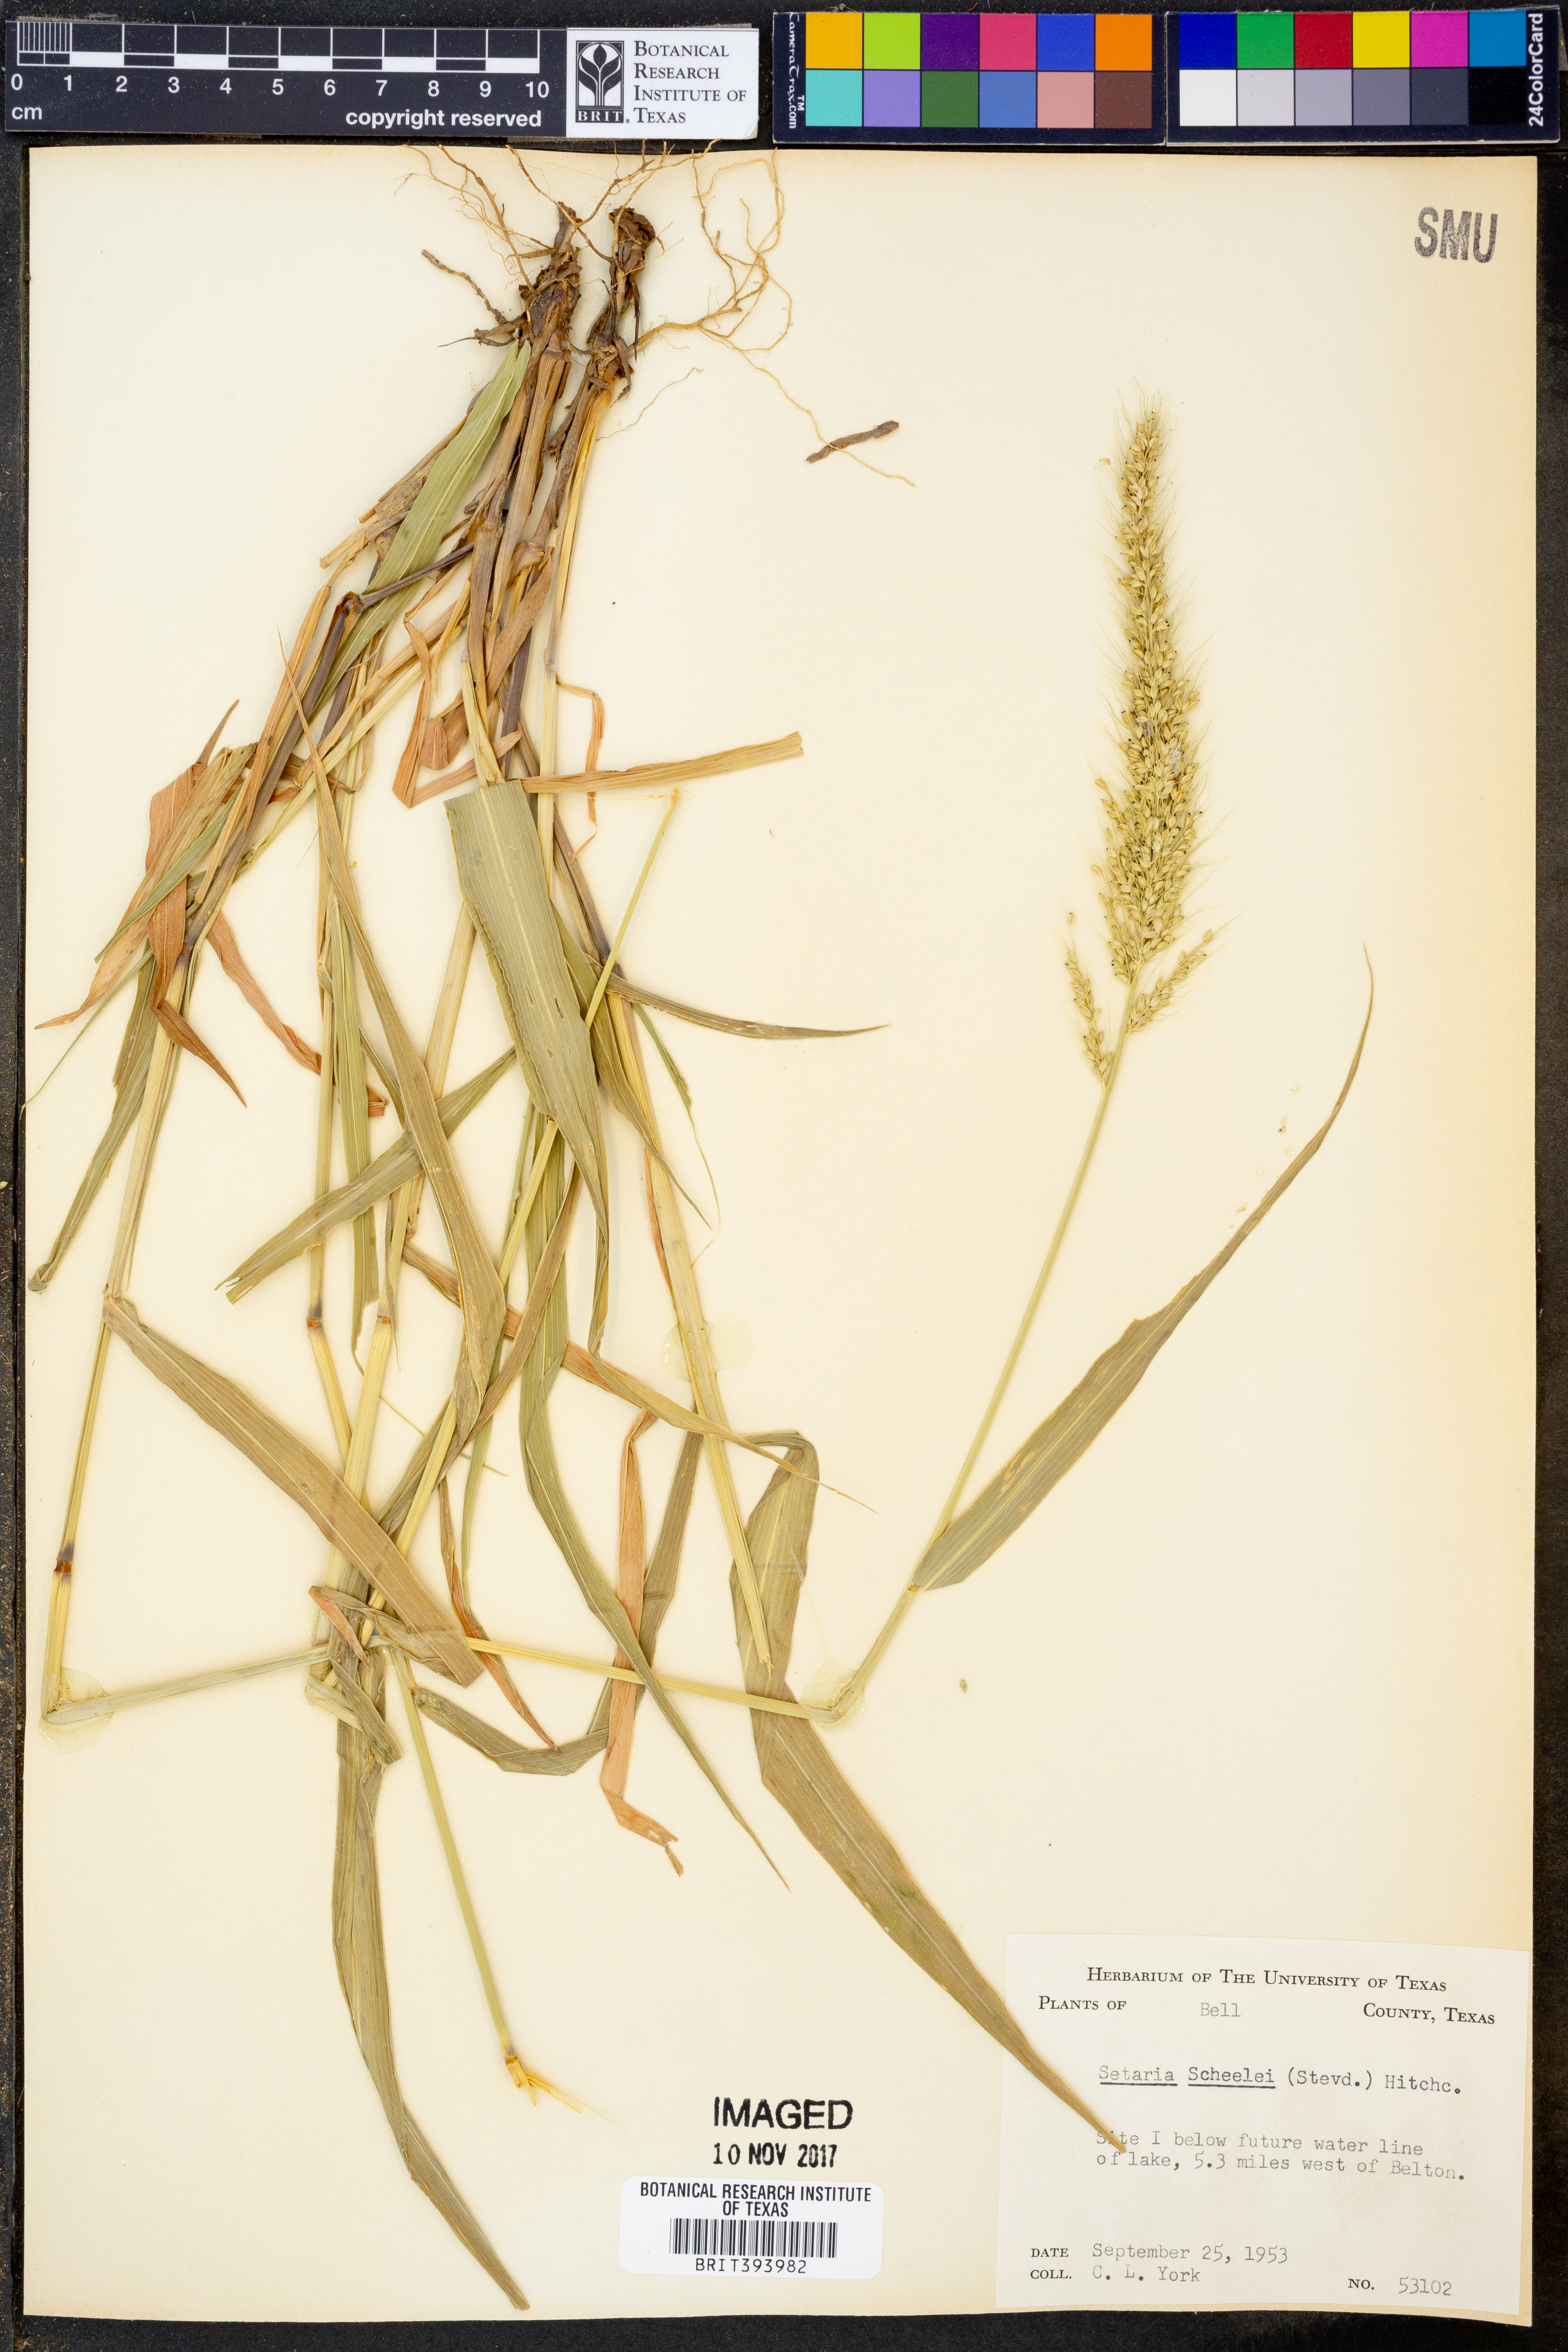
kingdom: Plantae
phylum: Tracheophyta
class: Liliopsida
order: Poales
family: Poaceae
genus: Setaria
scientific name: Setaria scheelei
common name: Southwestern bristle grass
